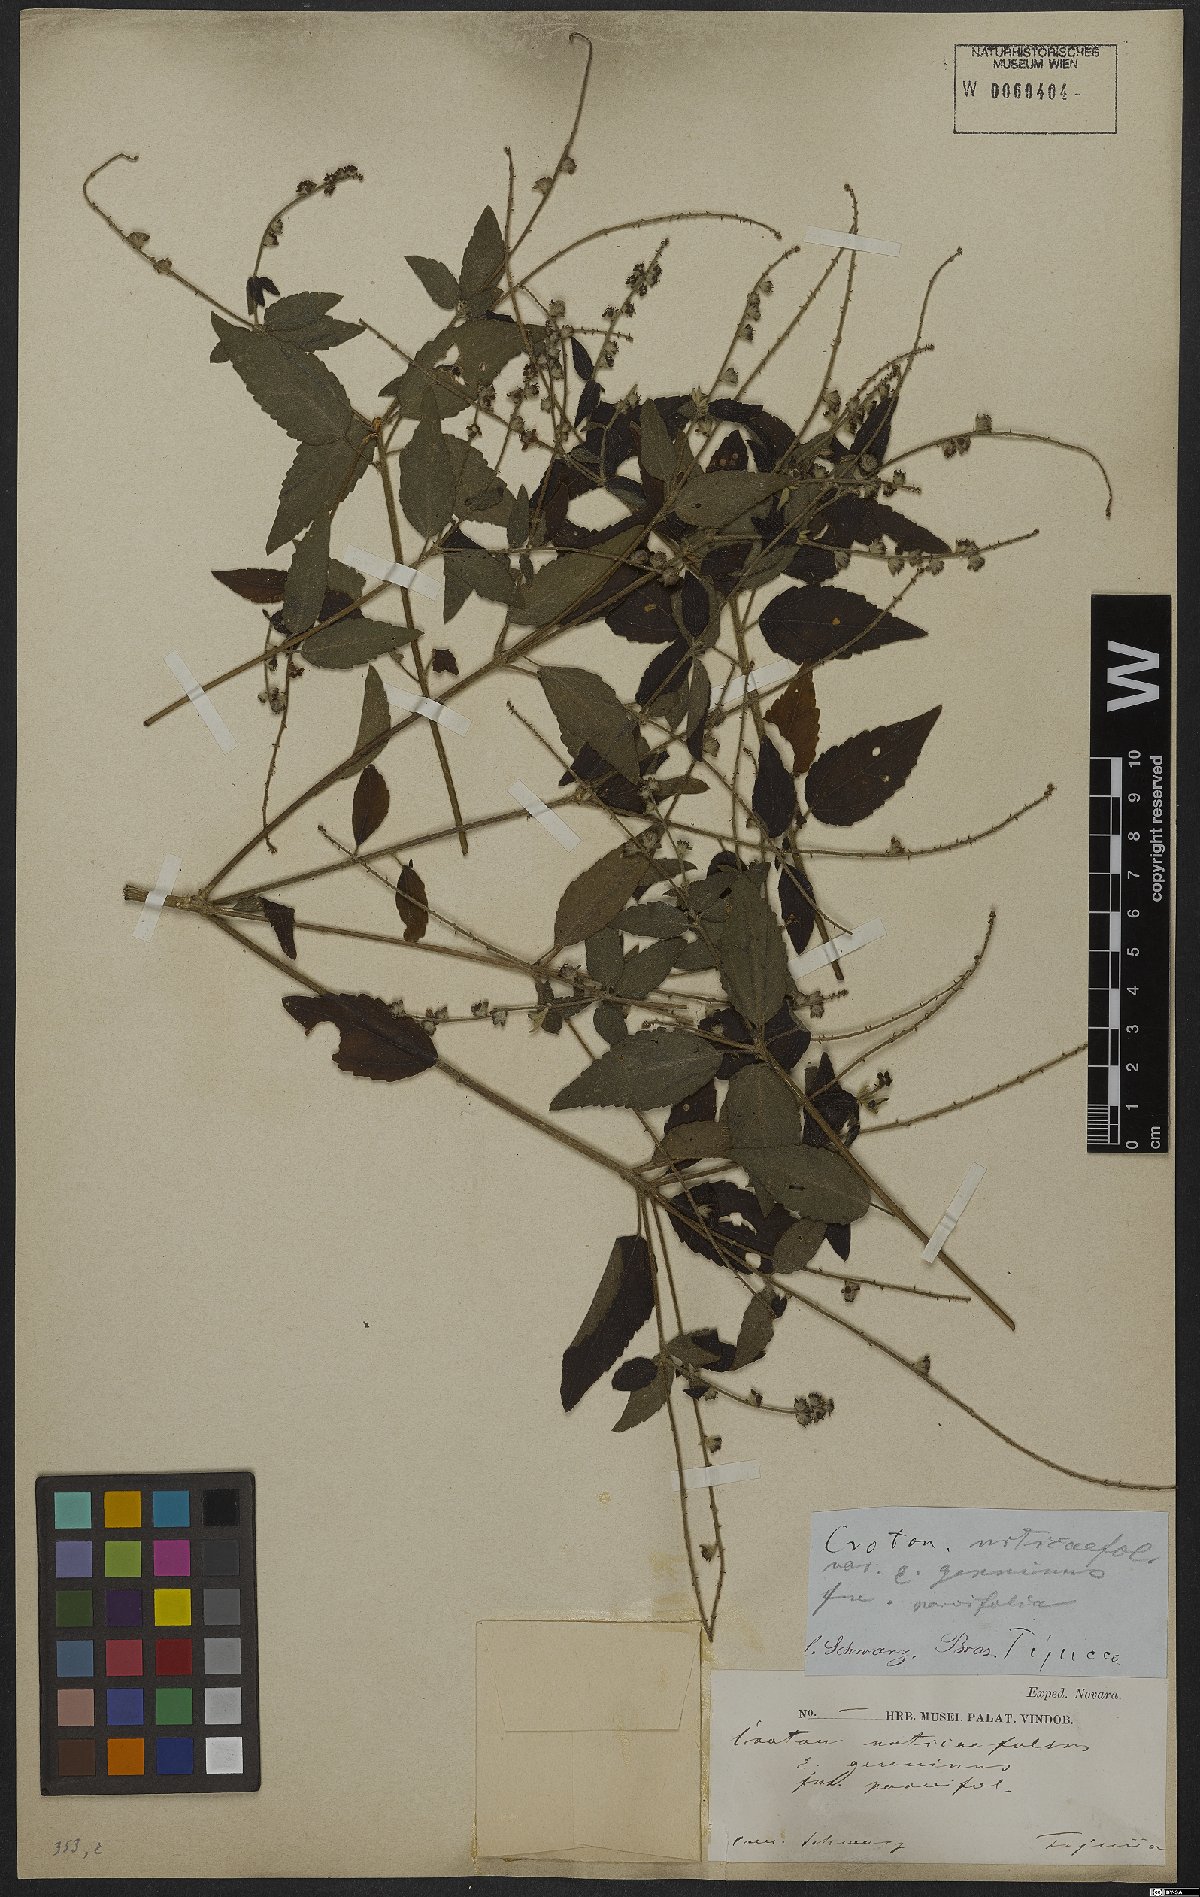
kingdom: Plantae
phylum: Tracheophyta
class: Magnoliopsida
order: Malpighiales
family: Euphorbiaceae
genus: Croton
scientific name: Croton urticifolius
